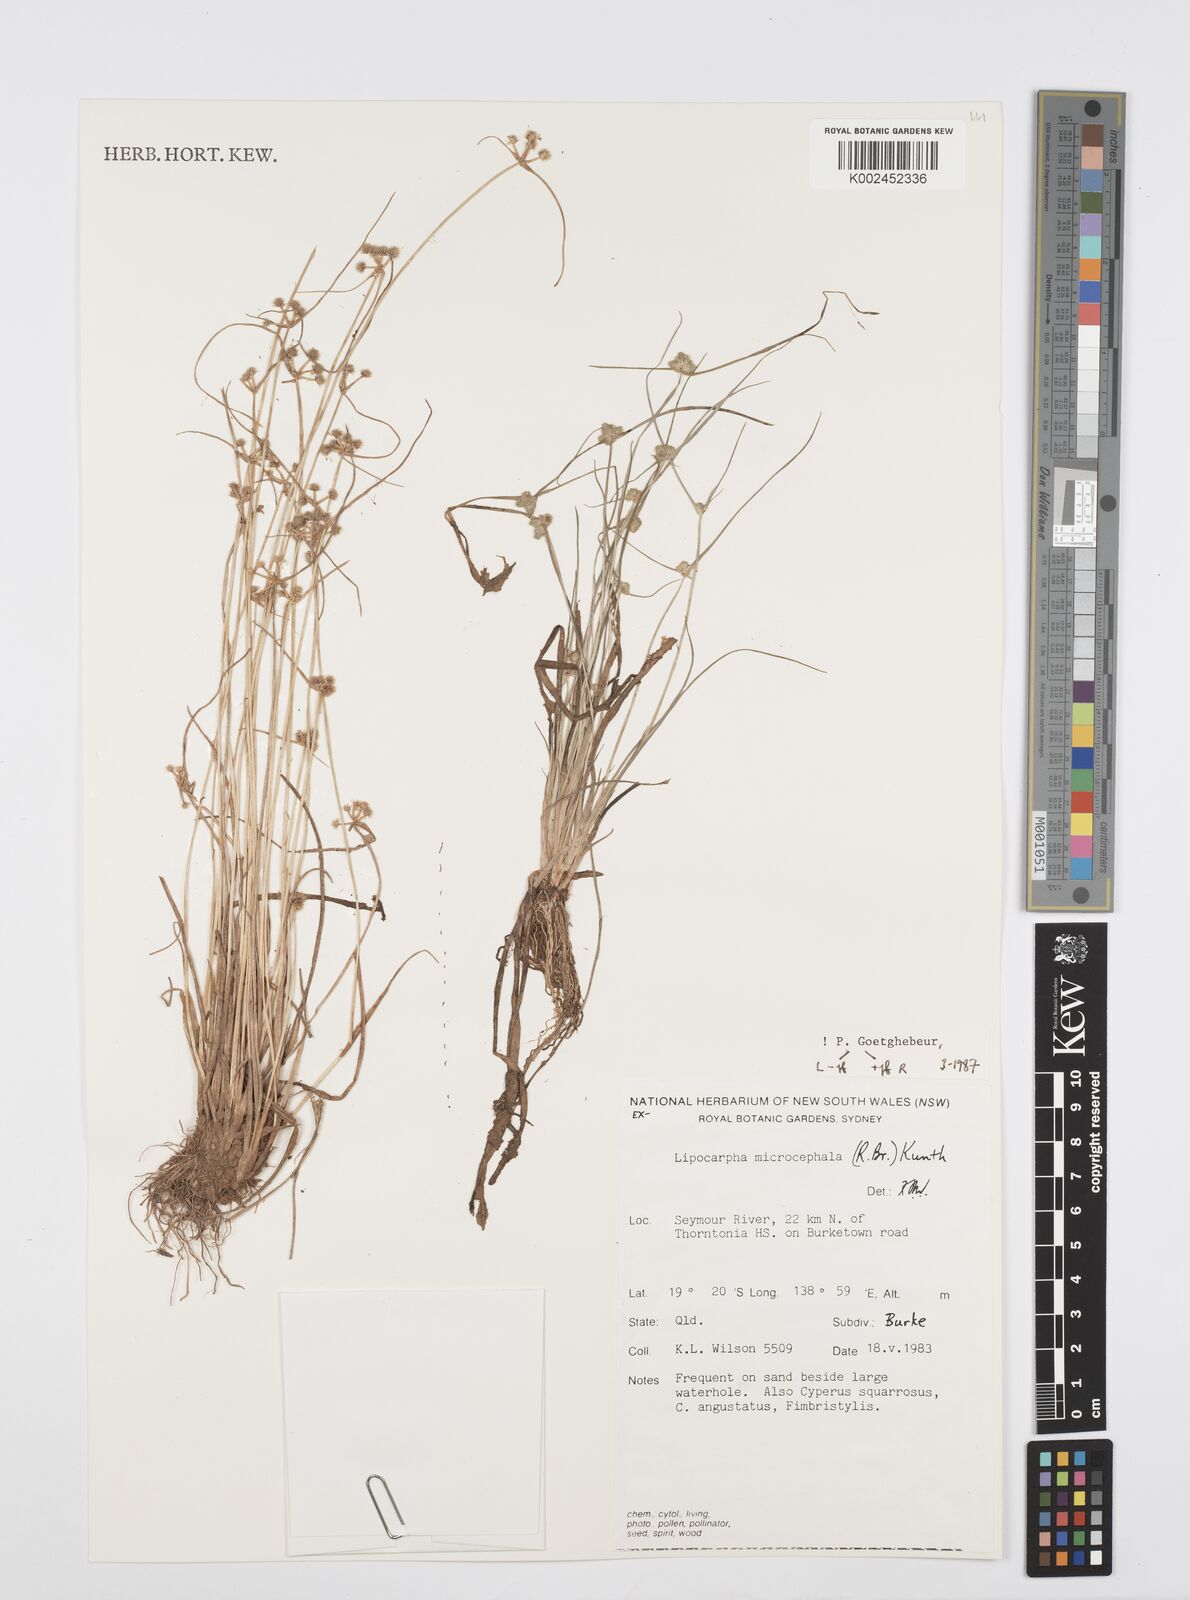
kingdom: Plantae
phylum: Tracheophyta
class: Liliopsida
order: Poales
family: Cyperaceae
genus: Cyperus
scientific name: Cyperus microcephalus
